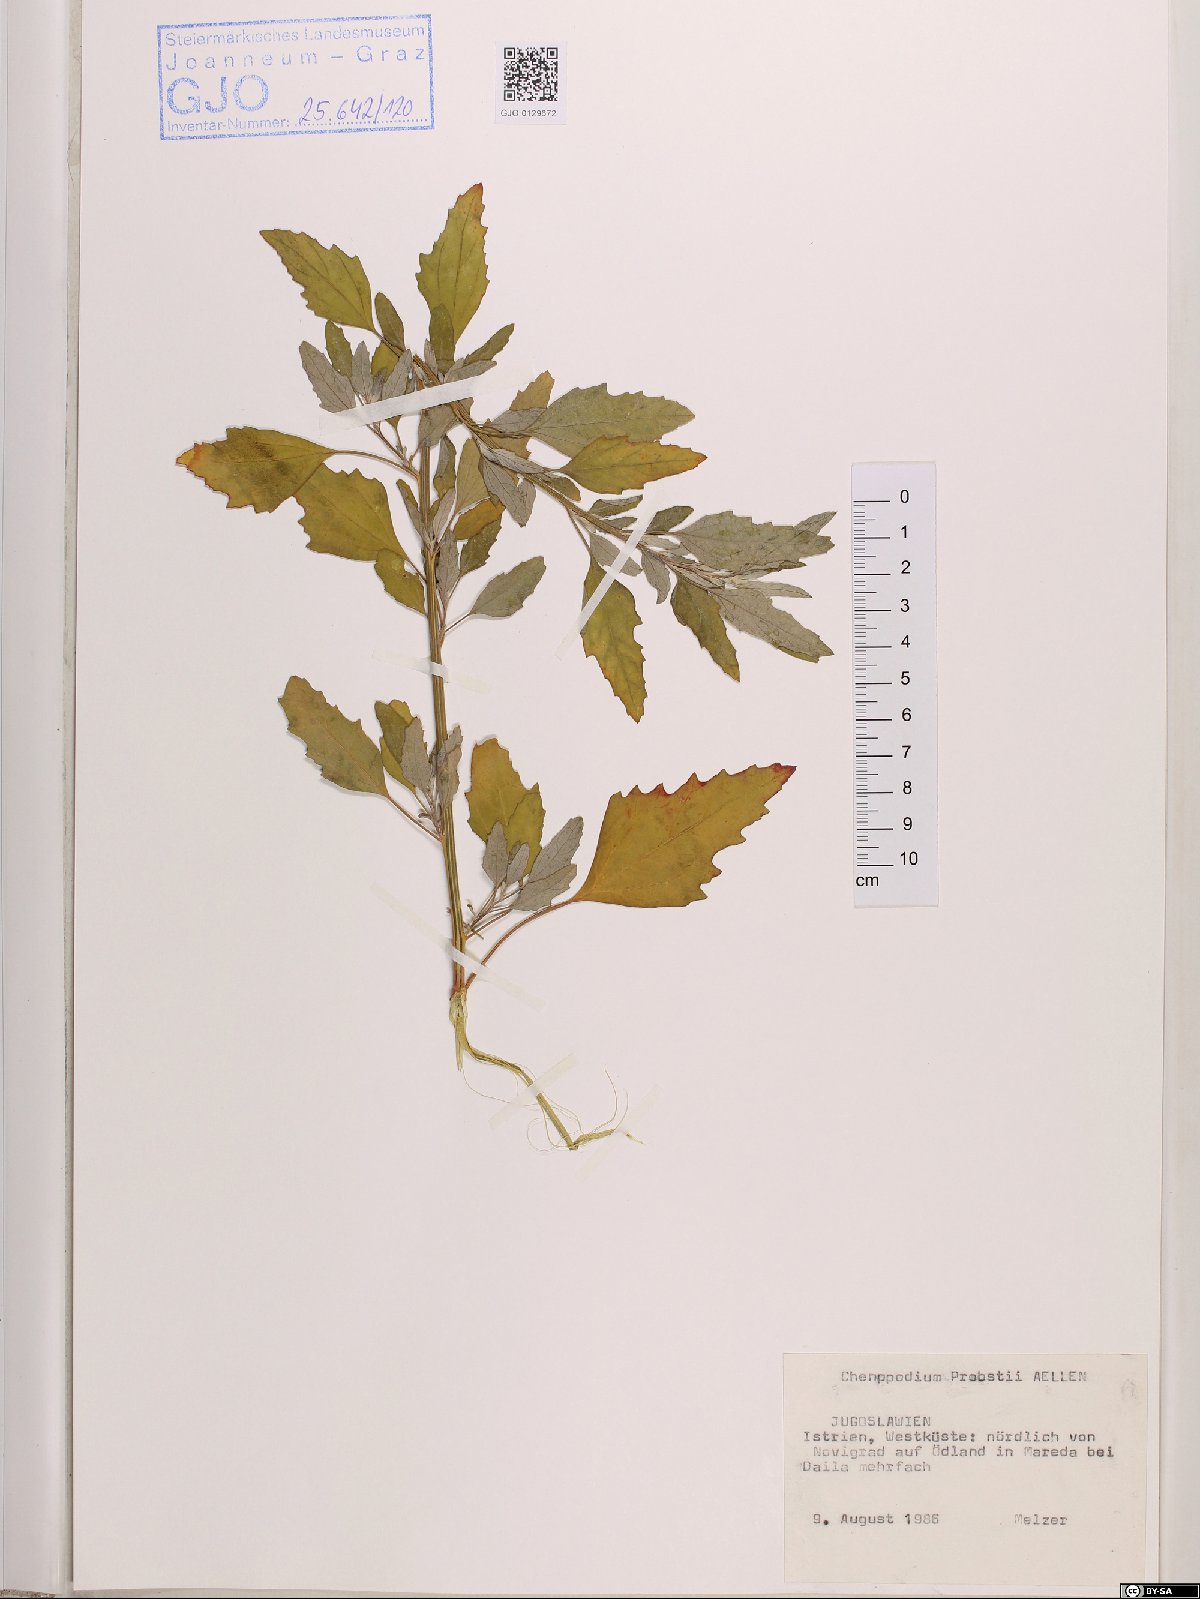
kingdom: Plantae
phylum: Tracheophyta
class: Magnoliopsida
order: Caryophyllales
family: Amaranthaceae
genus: Chenopodium
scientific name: Chenopodium probstii
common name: Probst's goosefoot
